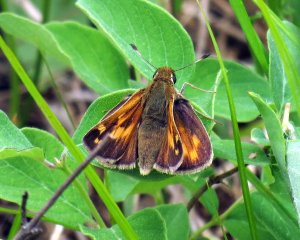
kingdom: Animalia
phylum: Arthropoda
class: Insecta
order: Lepidoptera
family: Hesperiidae
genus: Lon
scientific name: Lon hobomok
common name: Hobomok Skipper
